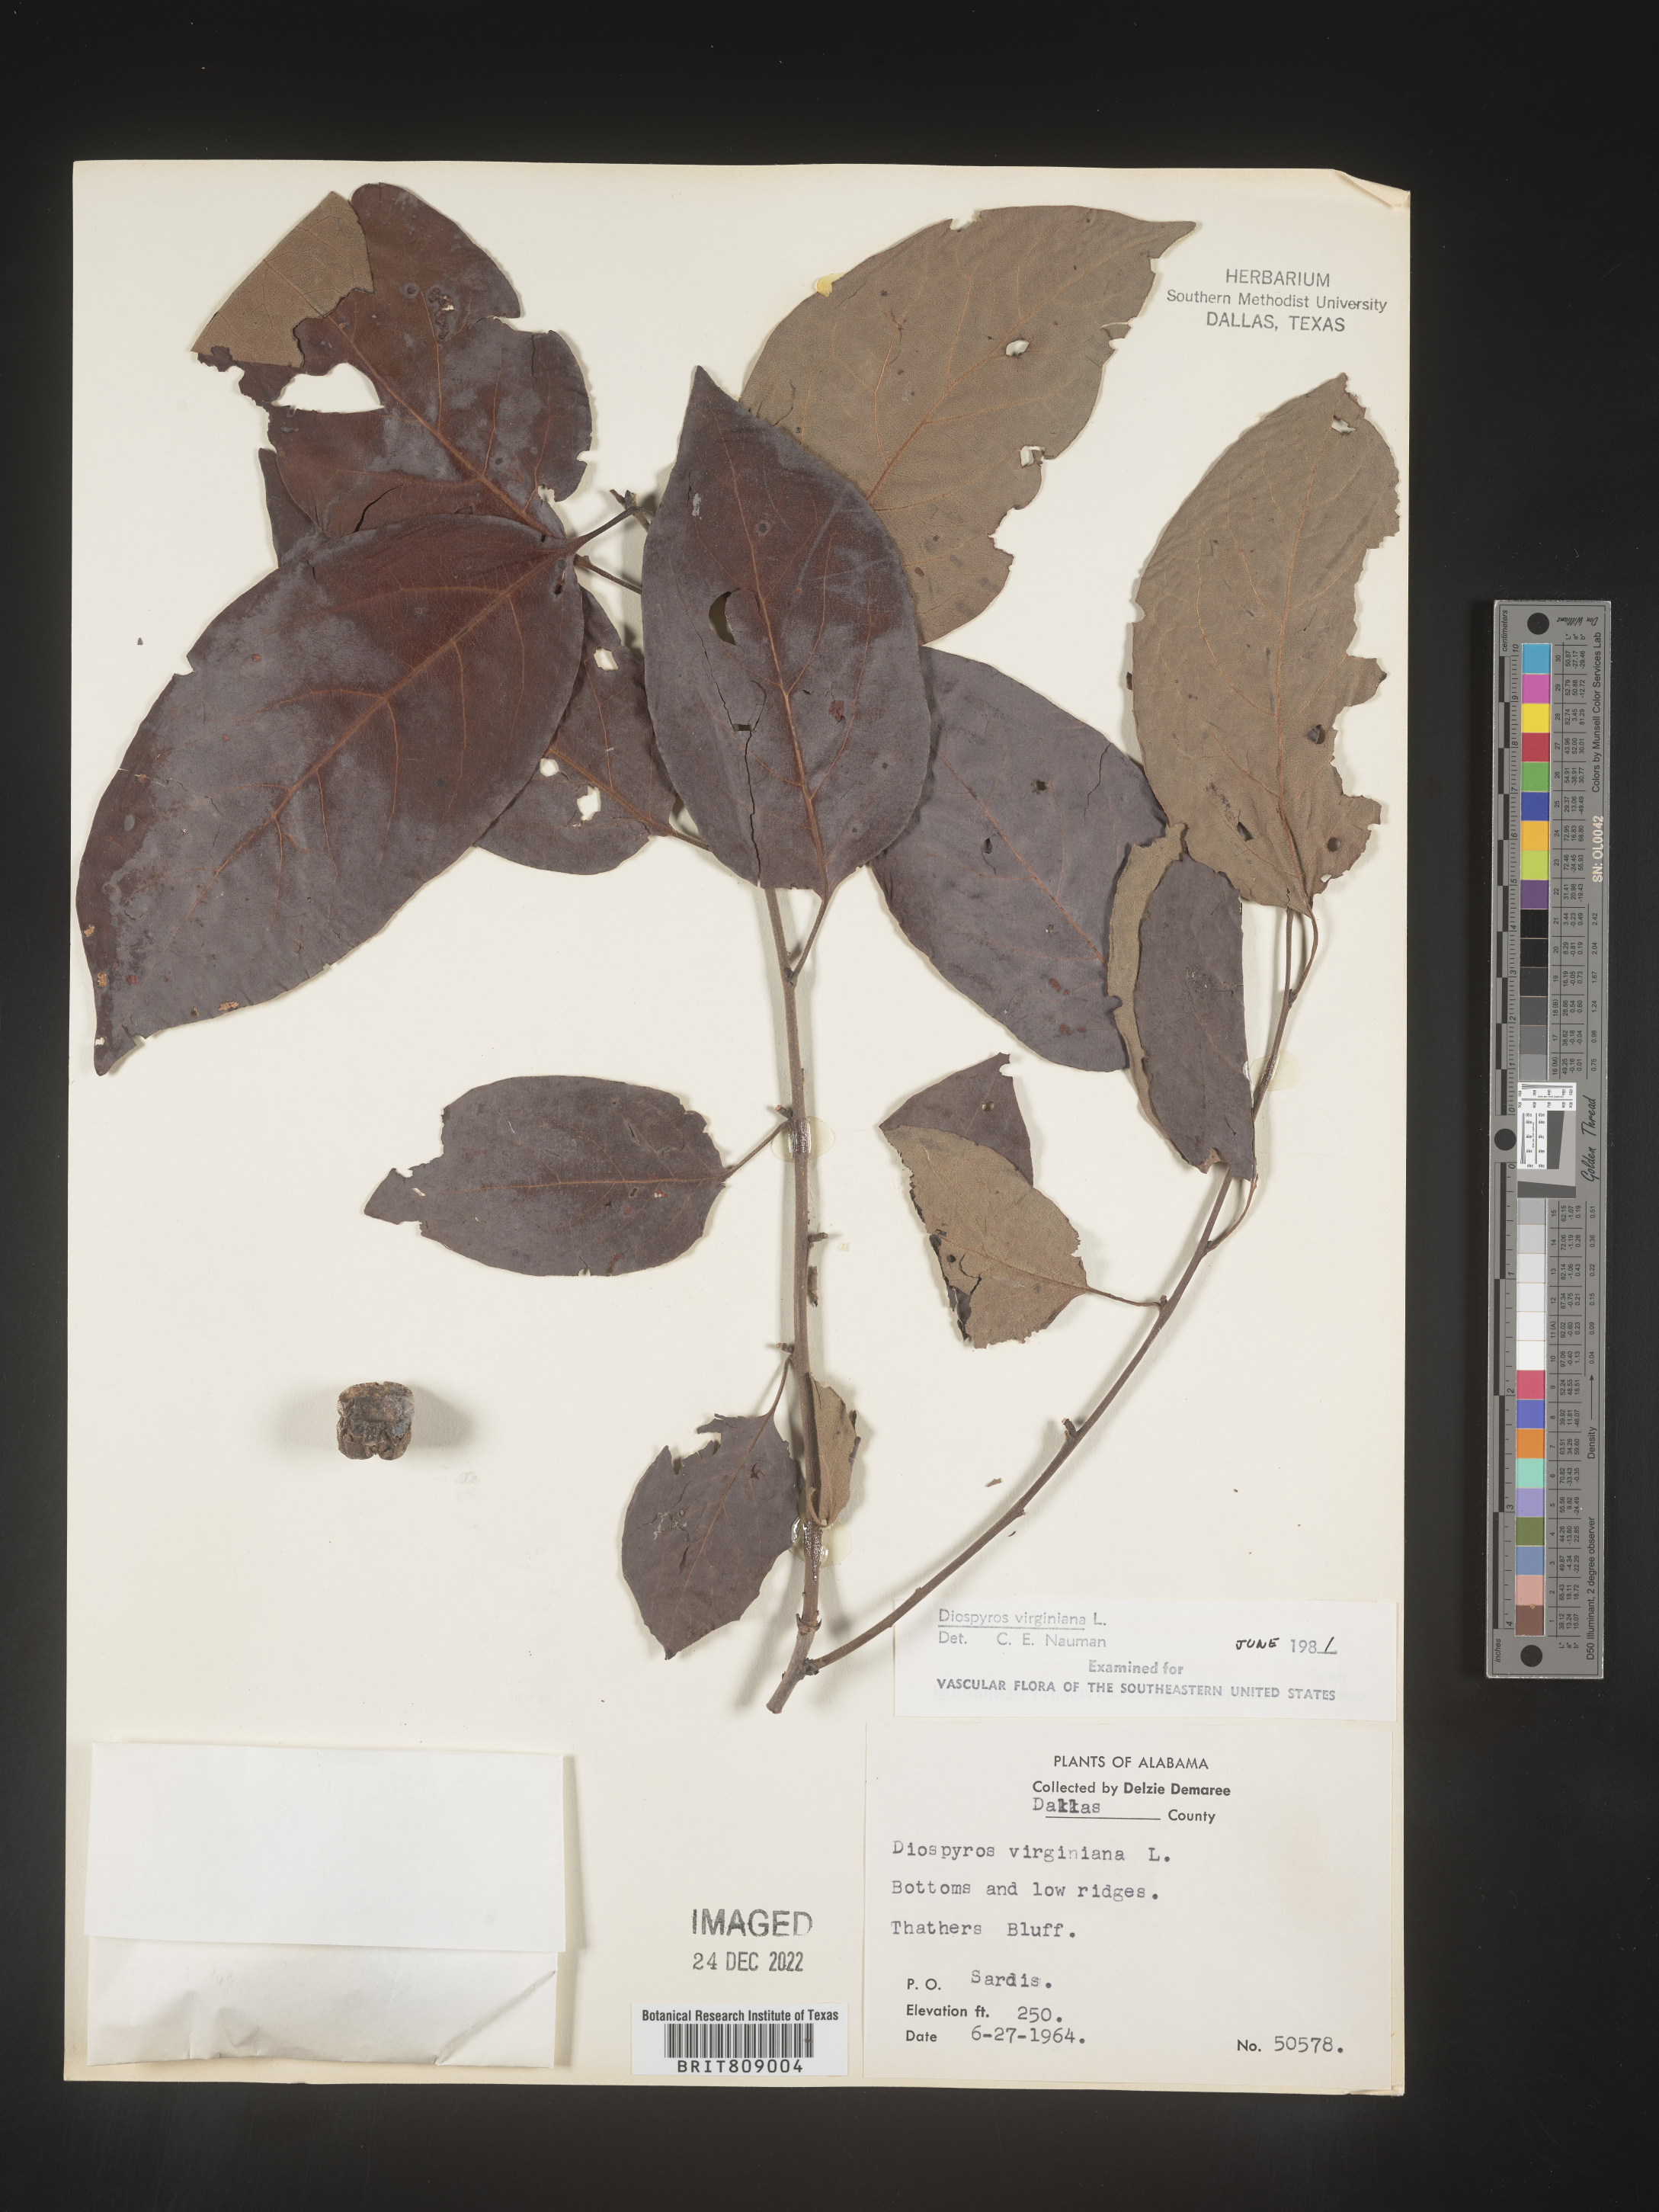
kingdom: Plantae
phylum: Tracheophyta
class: Magnoliopsida
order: Ericales
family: Ebenaceae
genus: Diospyros
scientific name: Diospyros virginiana
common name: Persimmon
